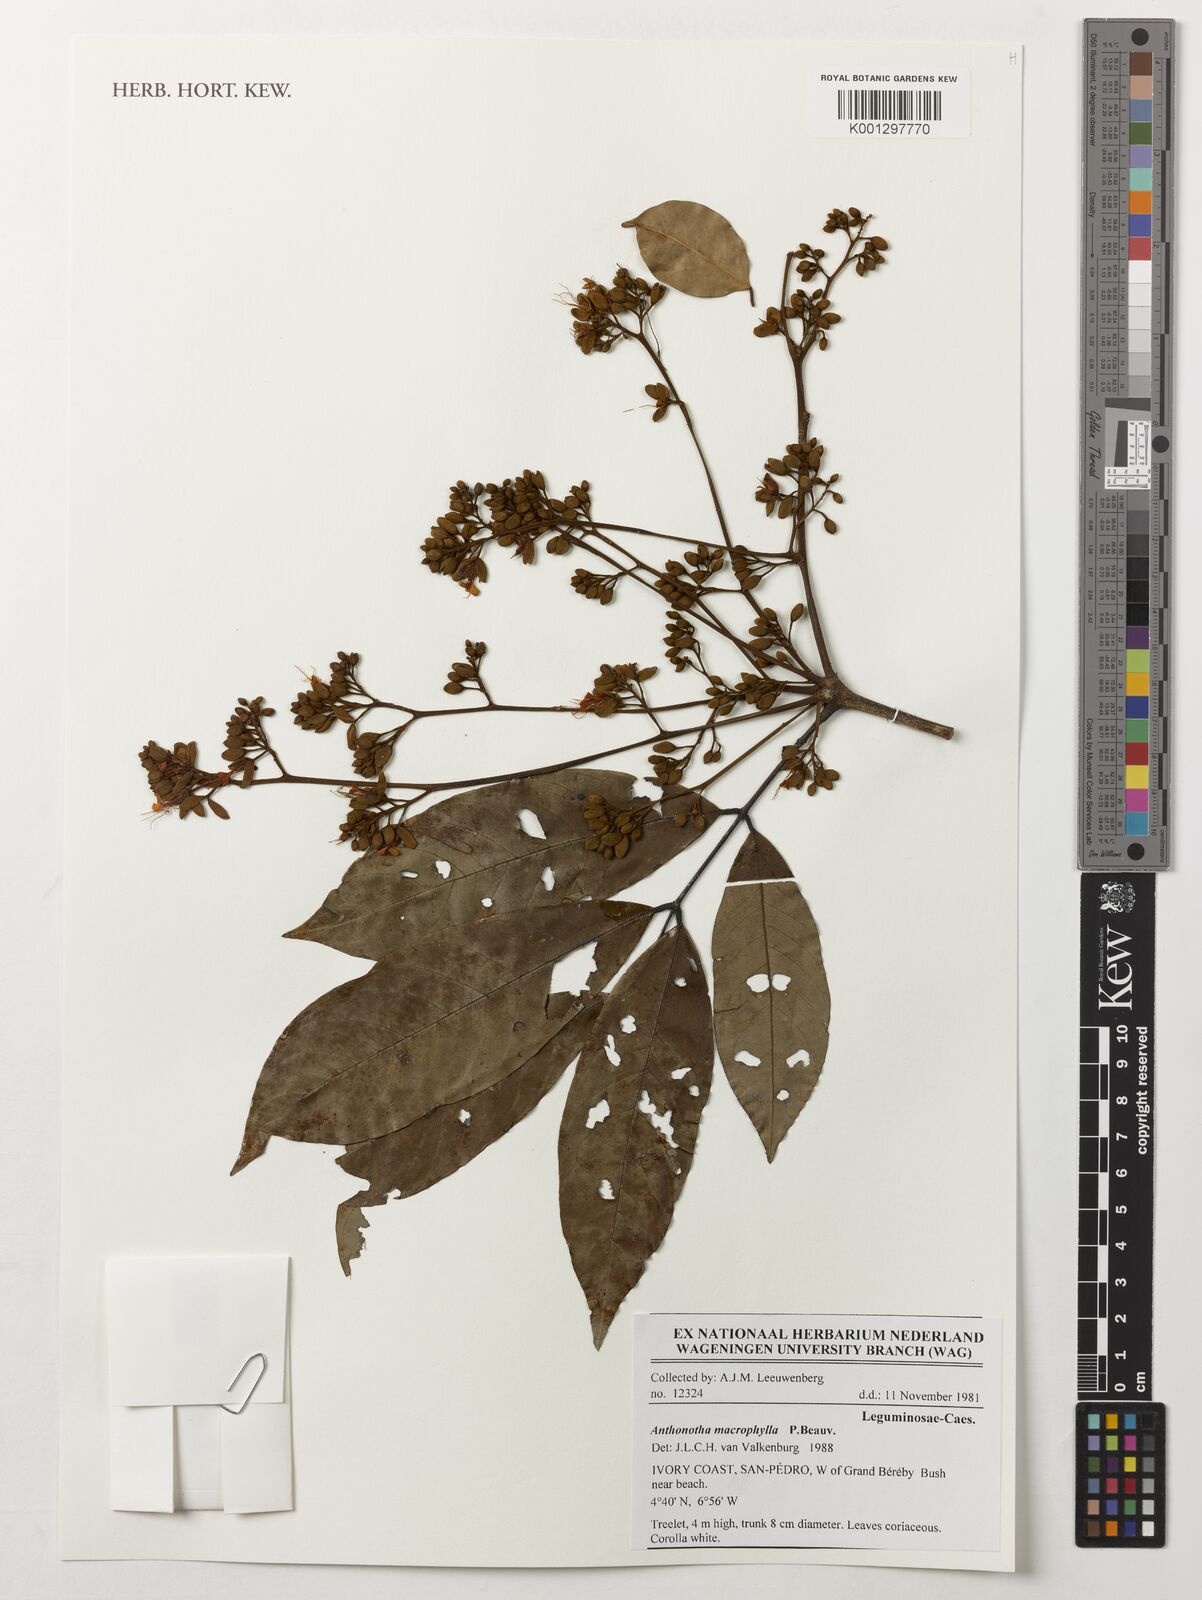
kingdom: Plantae
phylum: Tracheophyta
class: Magnoliopsida
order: Fabales
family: Fabaceae
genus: Anthonotha
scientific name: Anthonotha macrophylla
